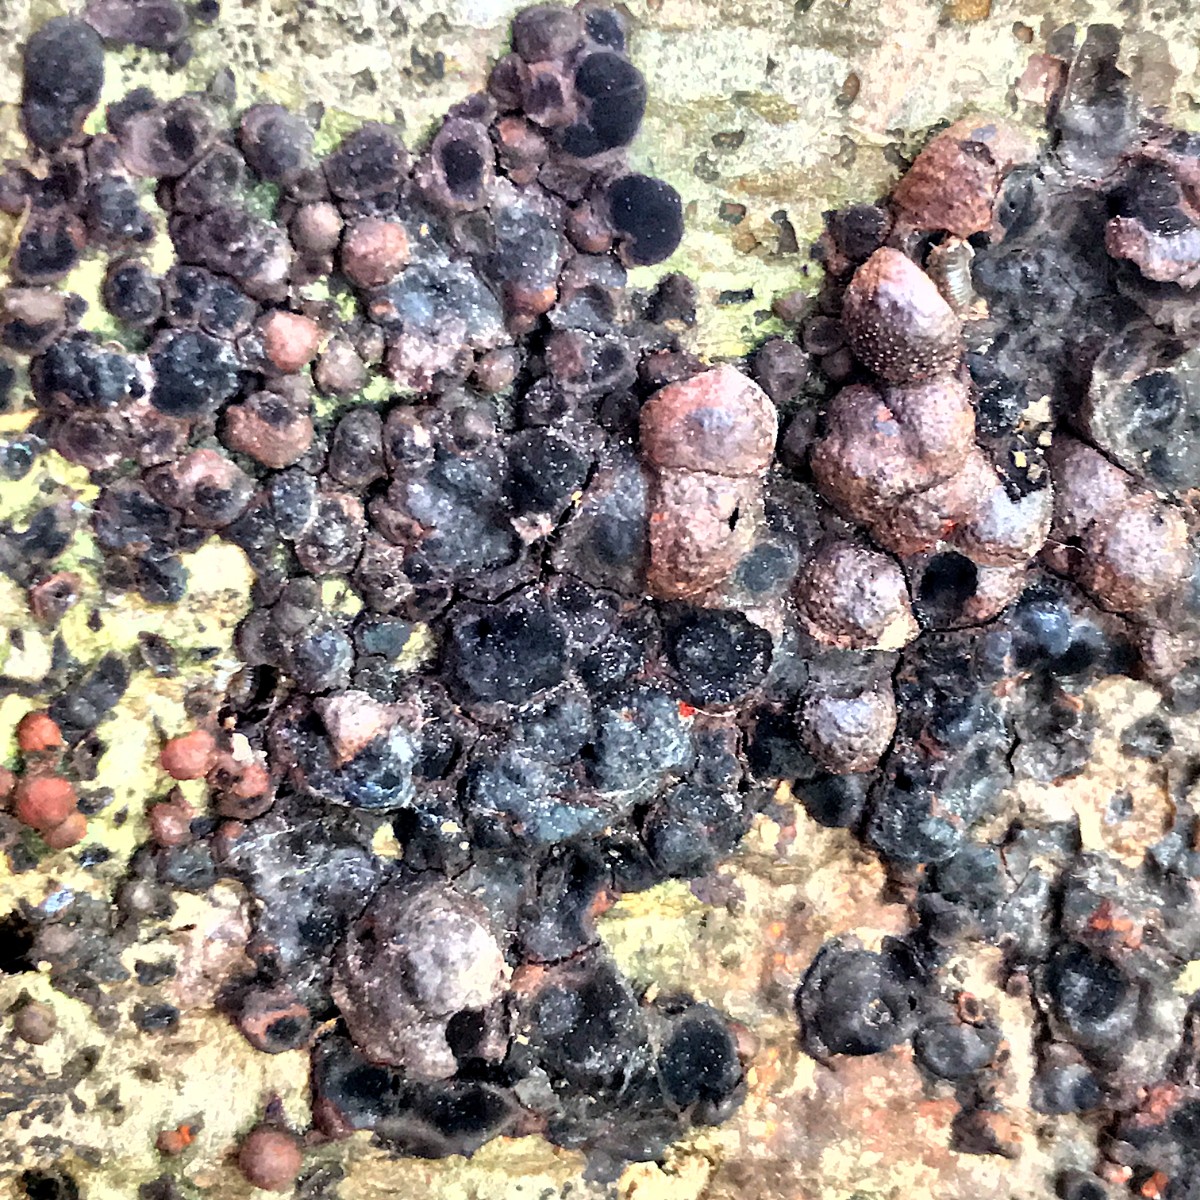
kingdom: Fungi
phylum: Ascomycota
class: Sordariomycetes
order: Xylariales
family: Hypoxylaceae
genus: Hypoxylon
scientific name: Hypoxylon fragiforme
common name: kuljordbær
